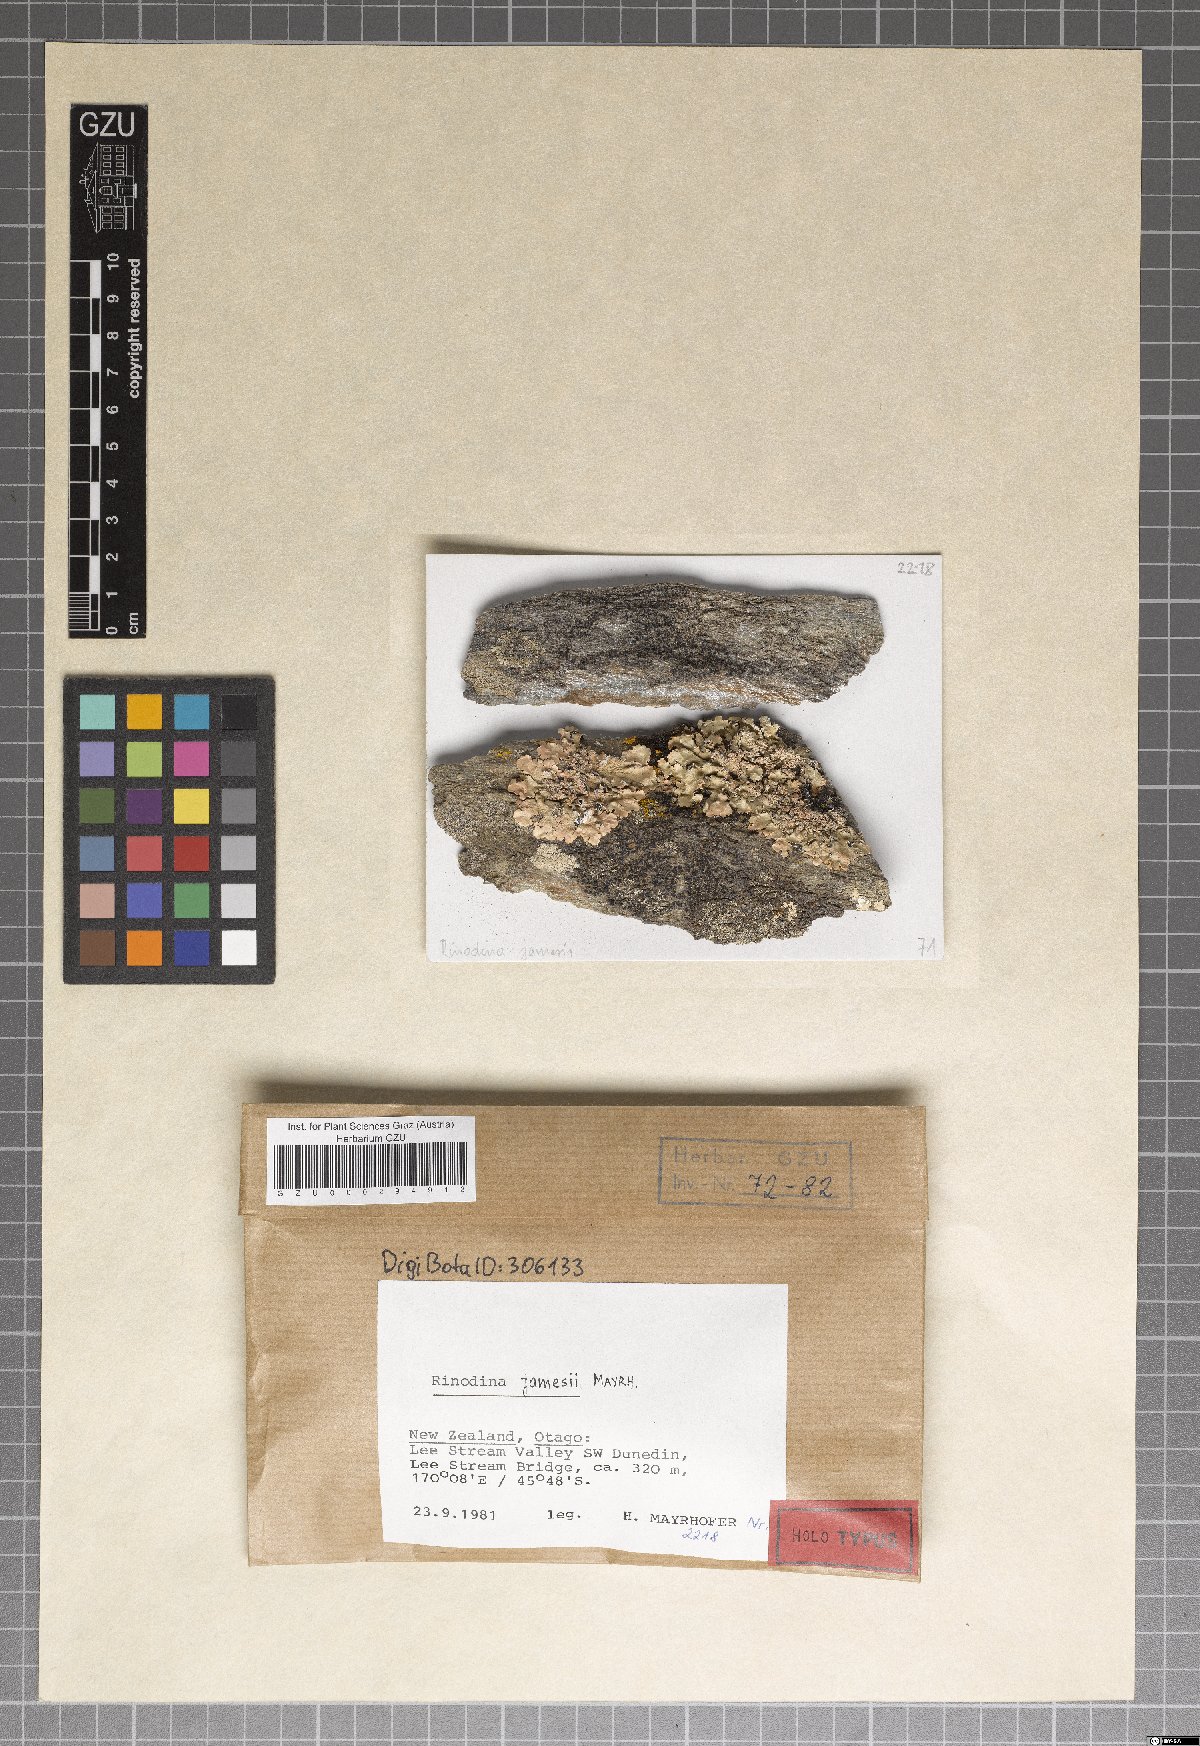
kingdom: Fungi
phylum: Ascomycota
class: Lecanoromycetes
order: Caliciales
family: Physciaceae
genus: Johnsheardia
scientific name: Johnsheardia jamesii
